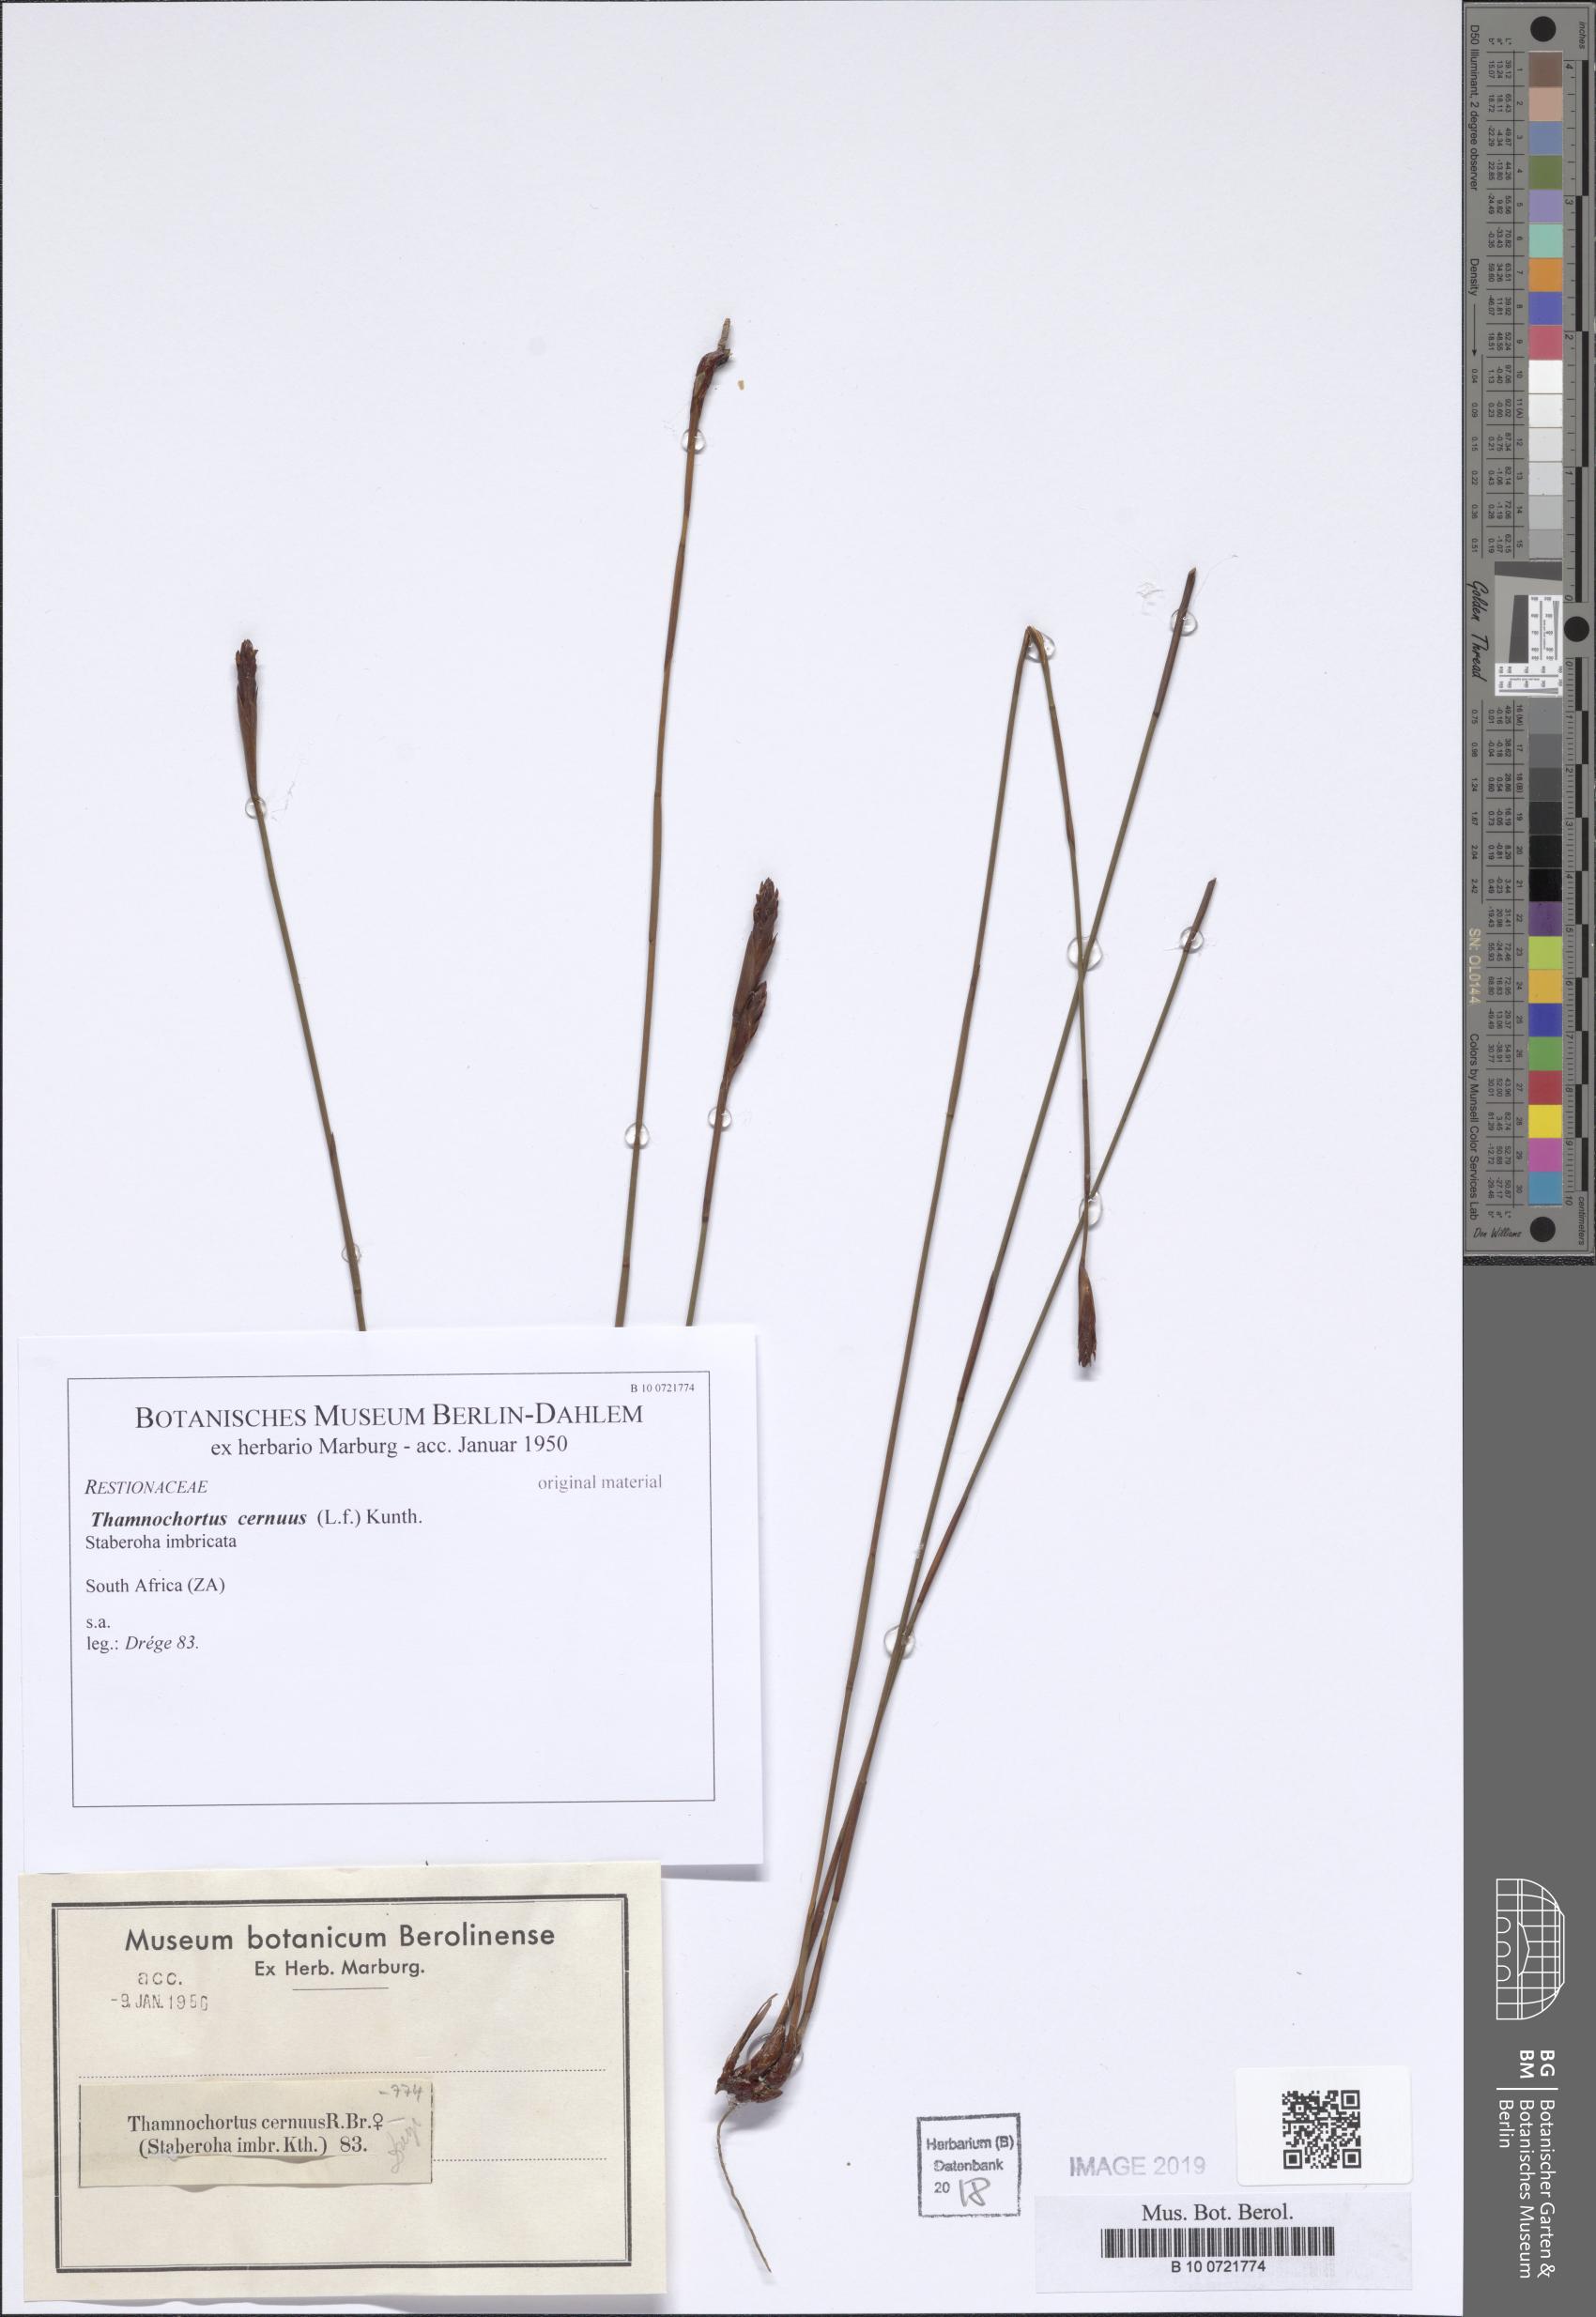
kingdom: Plantae
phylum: Tracheophyta
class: Liliopsida
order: Poales
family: Restionaceae
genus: Staberoha
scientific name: Staberoha cernua
